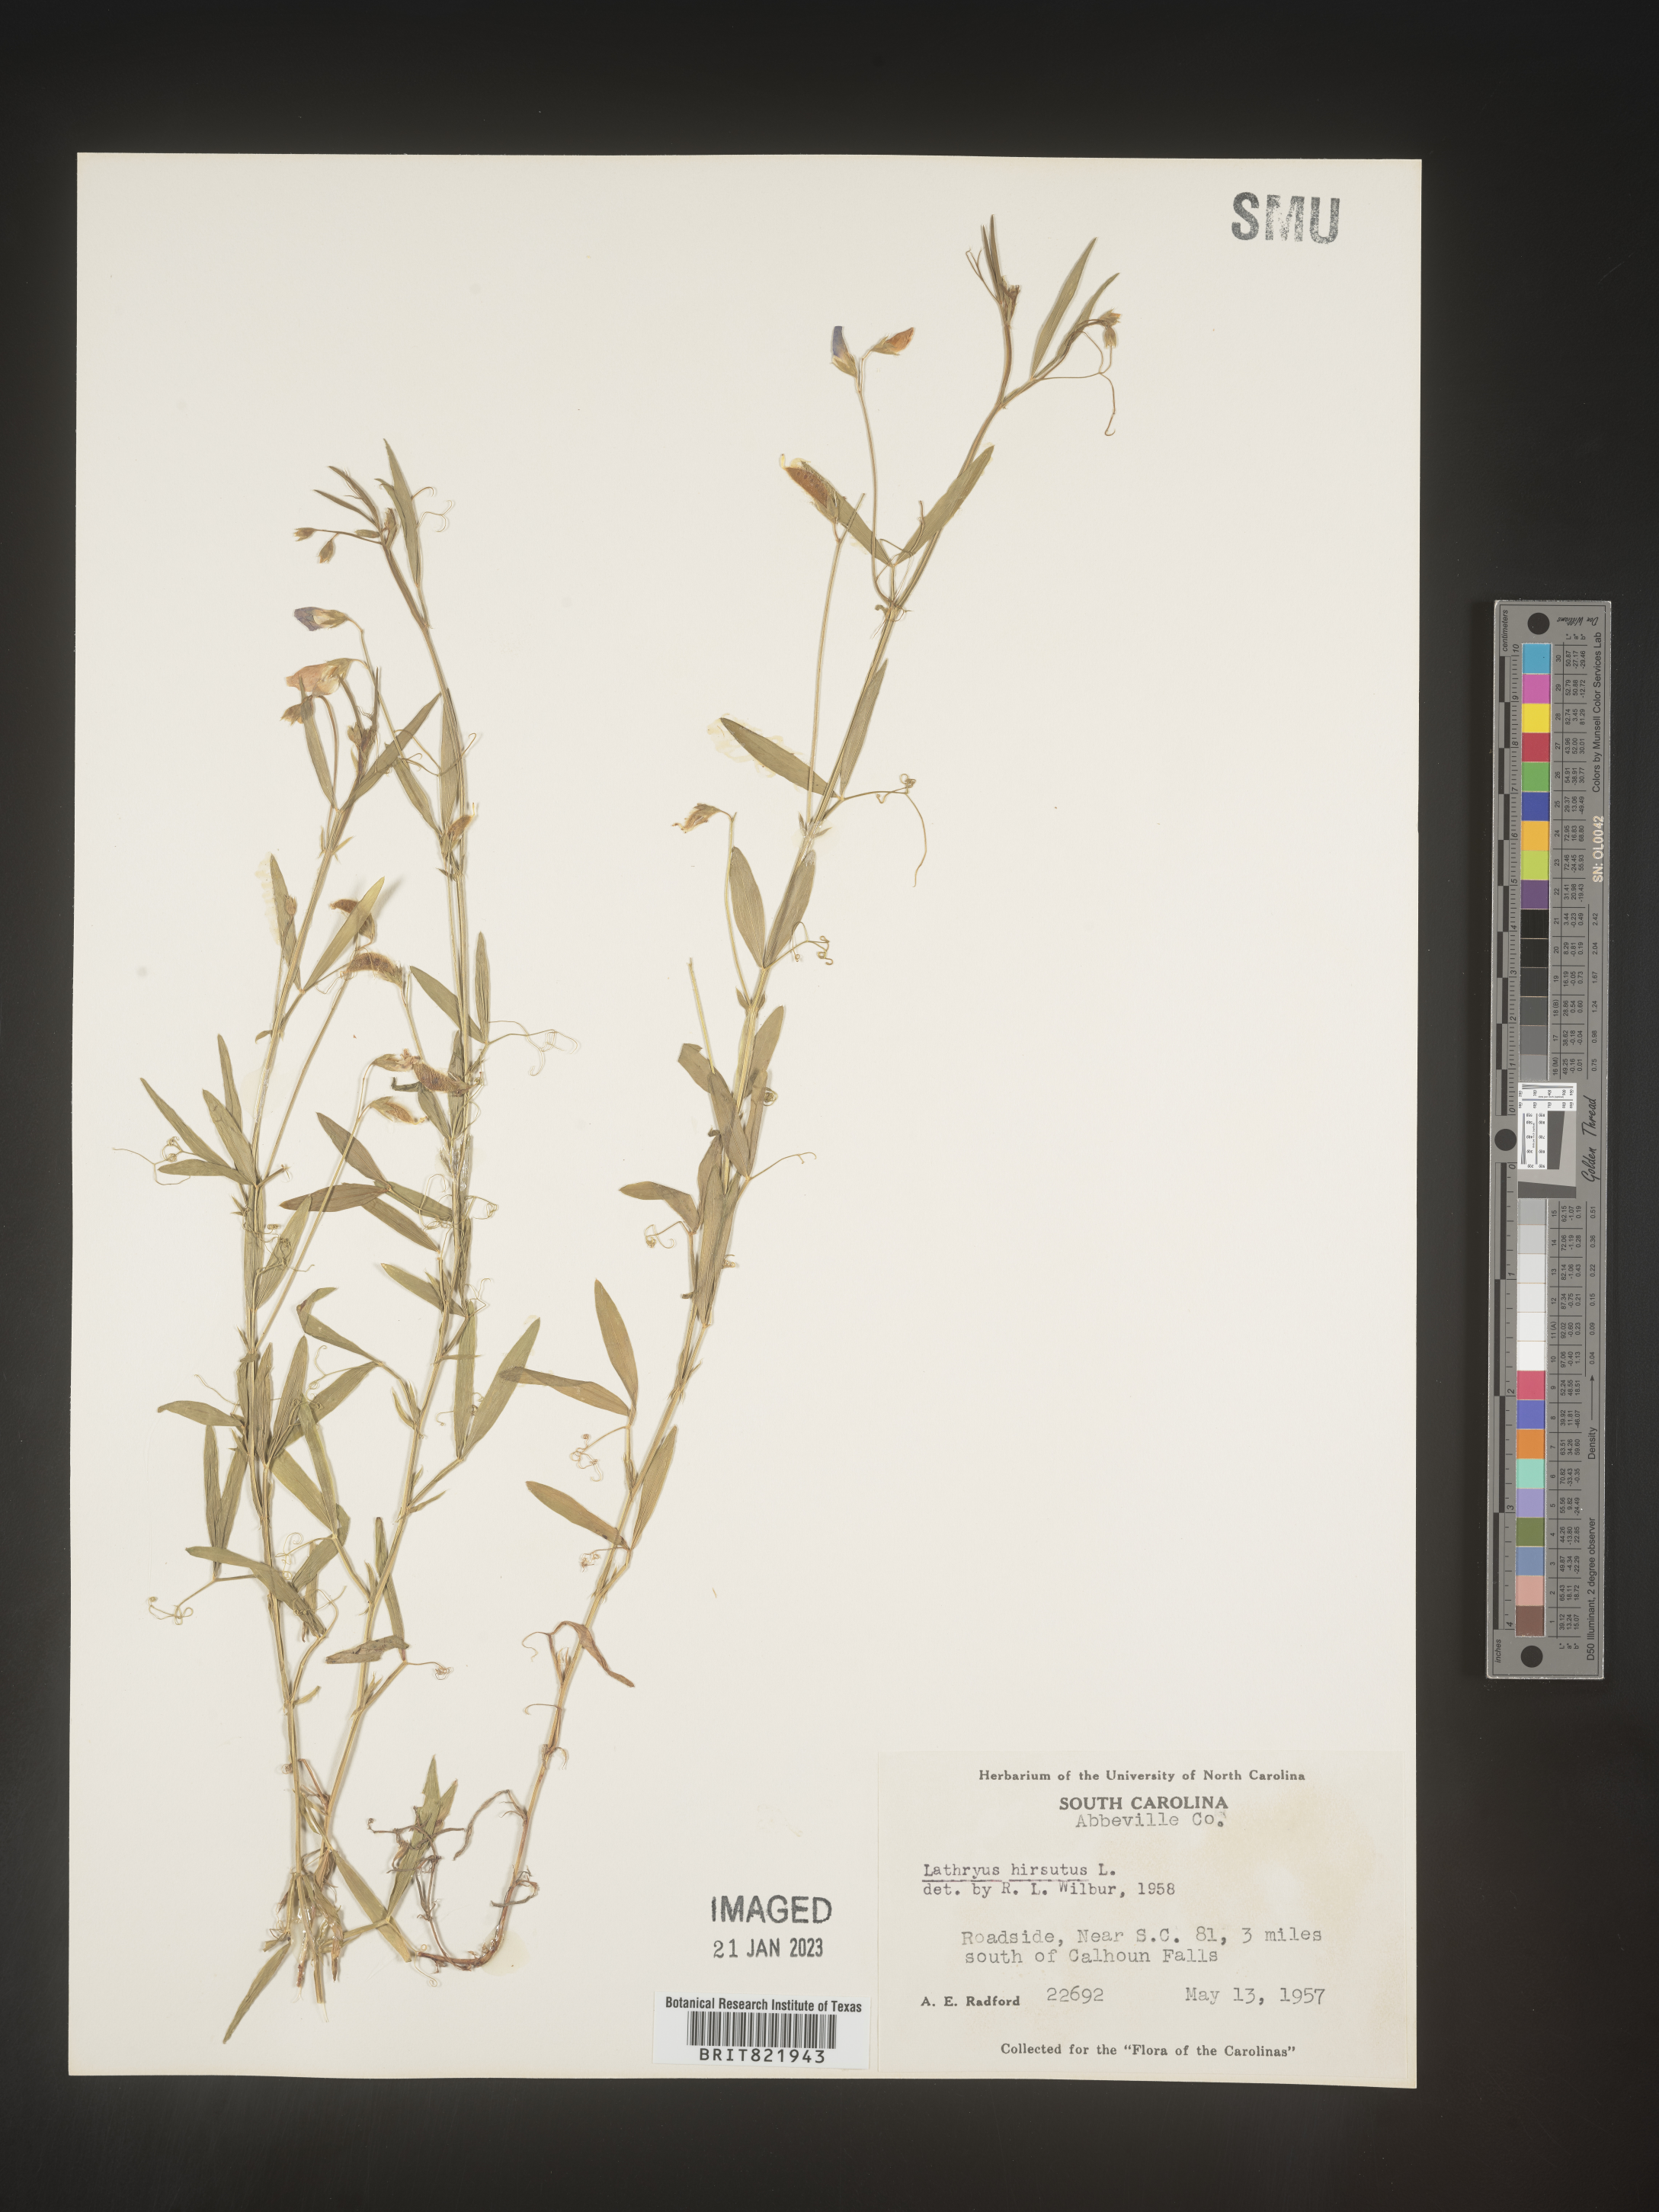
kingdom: Plantae
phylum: Tracheophyta
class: Magnoliopsida
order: Fabales
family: Fabaceae
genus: Lathyrus
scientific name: Lathyrus hirsutus
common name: Hairy vetchling
